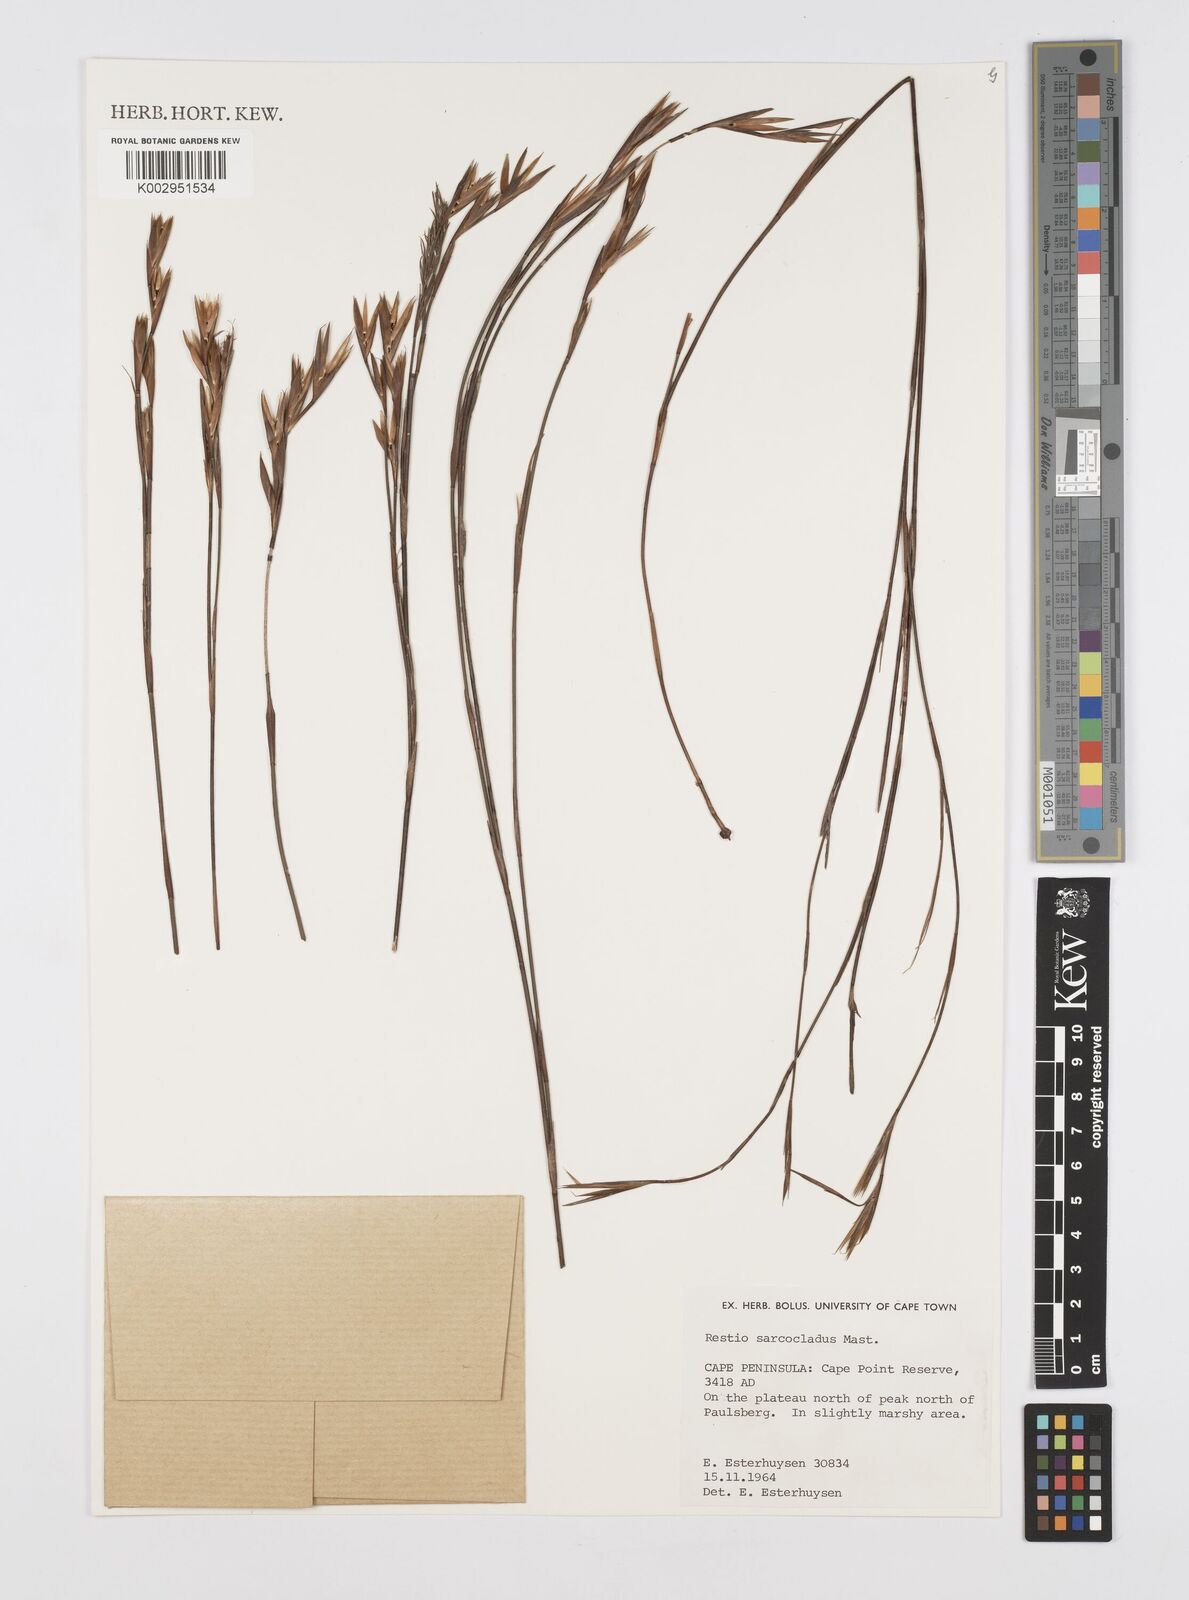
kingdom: Plantae
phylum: Tracheophyta
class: Liliopsida
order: Poales
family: Restionaceae
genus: Restio
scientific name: Restio saroclados
